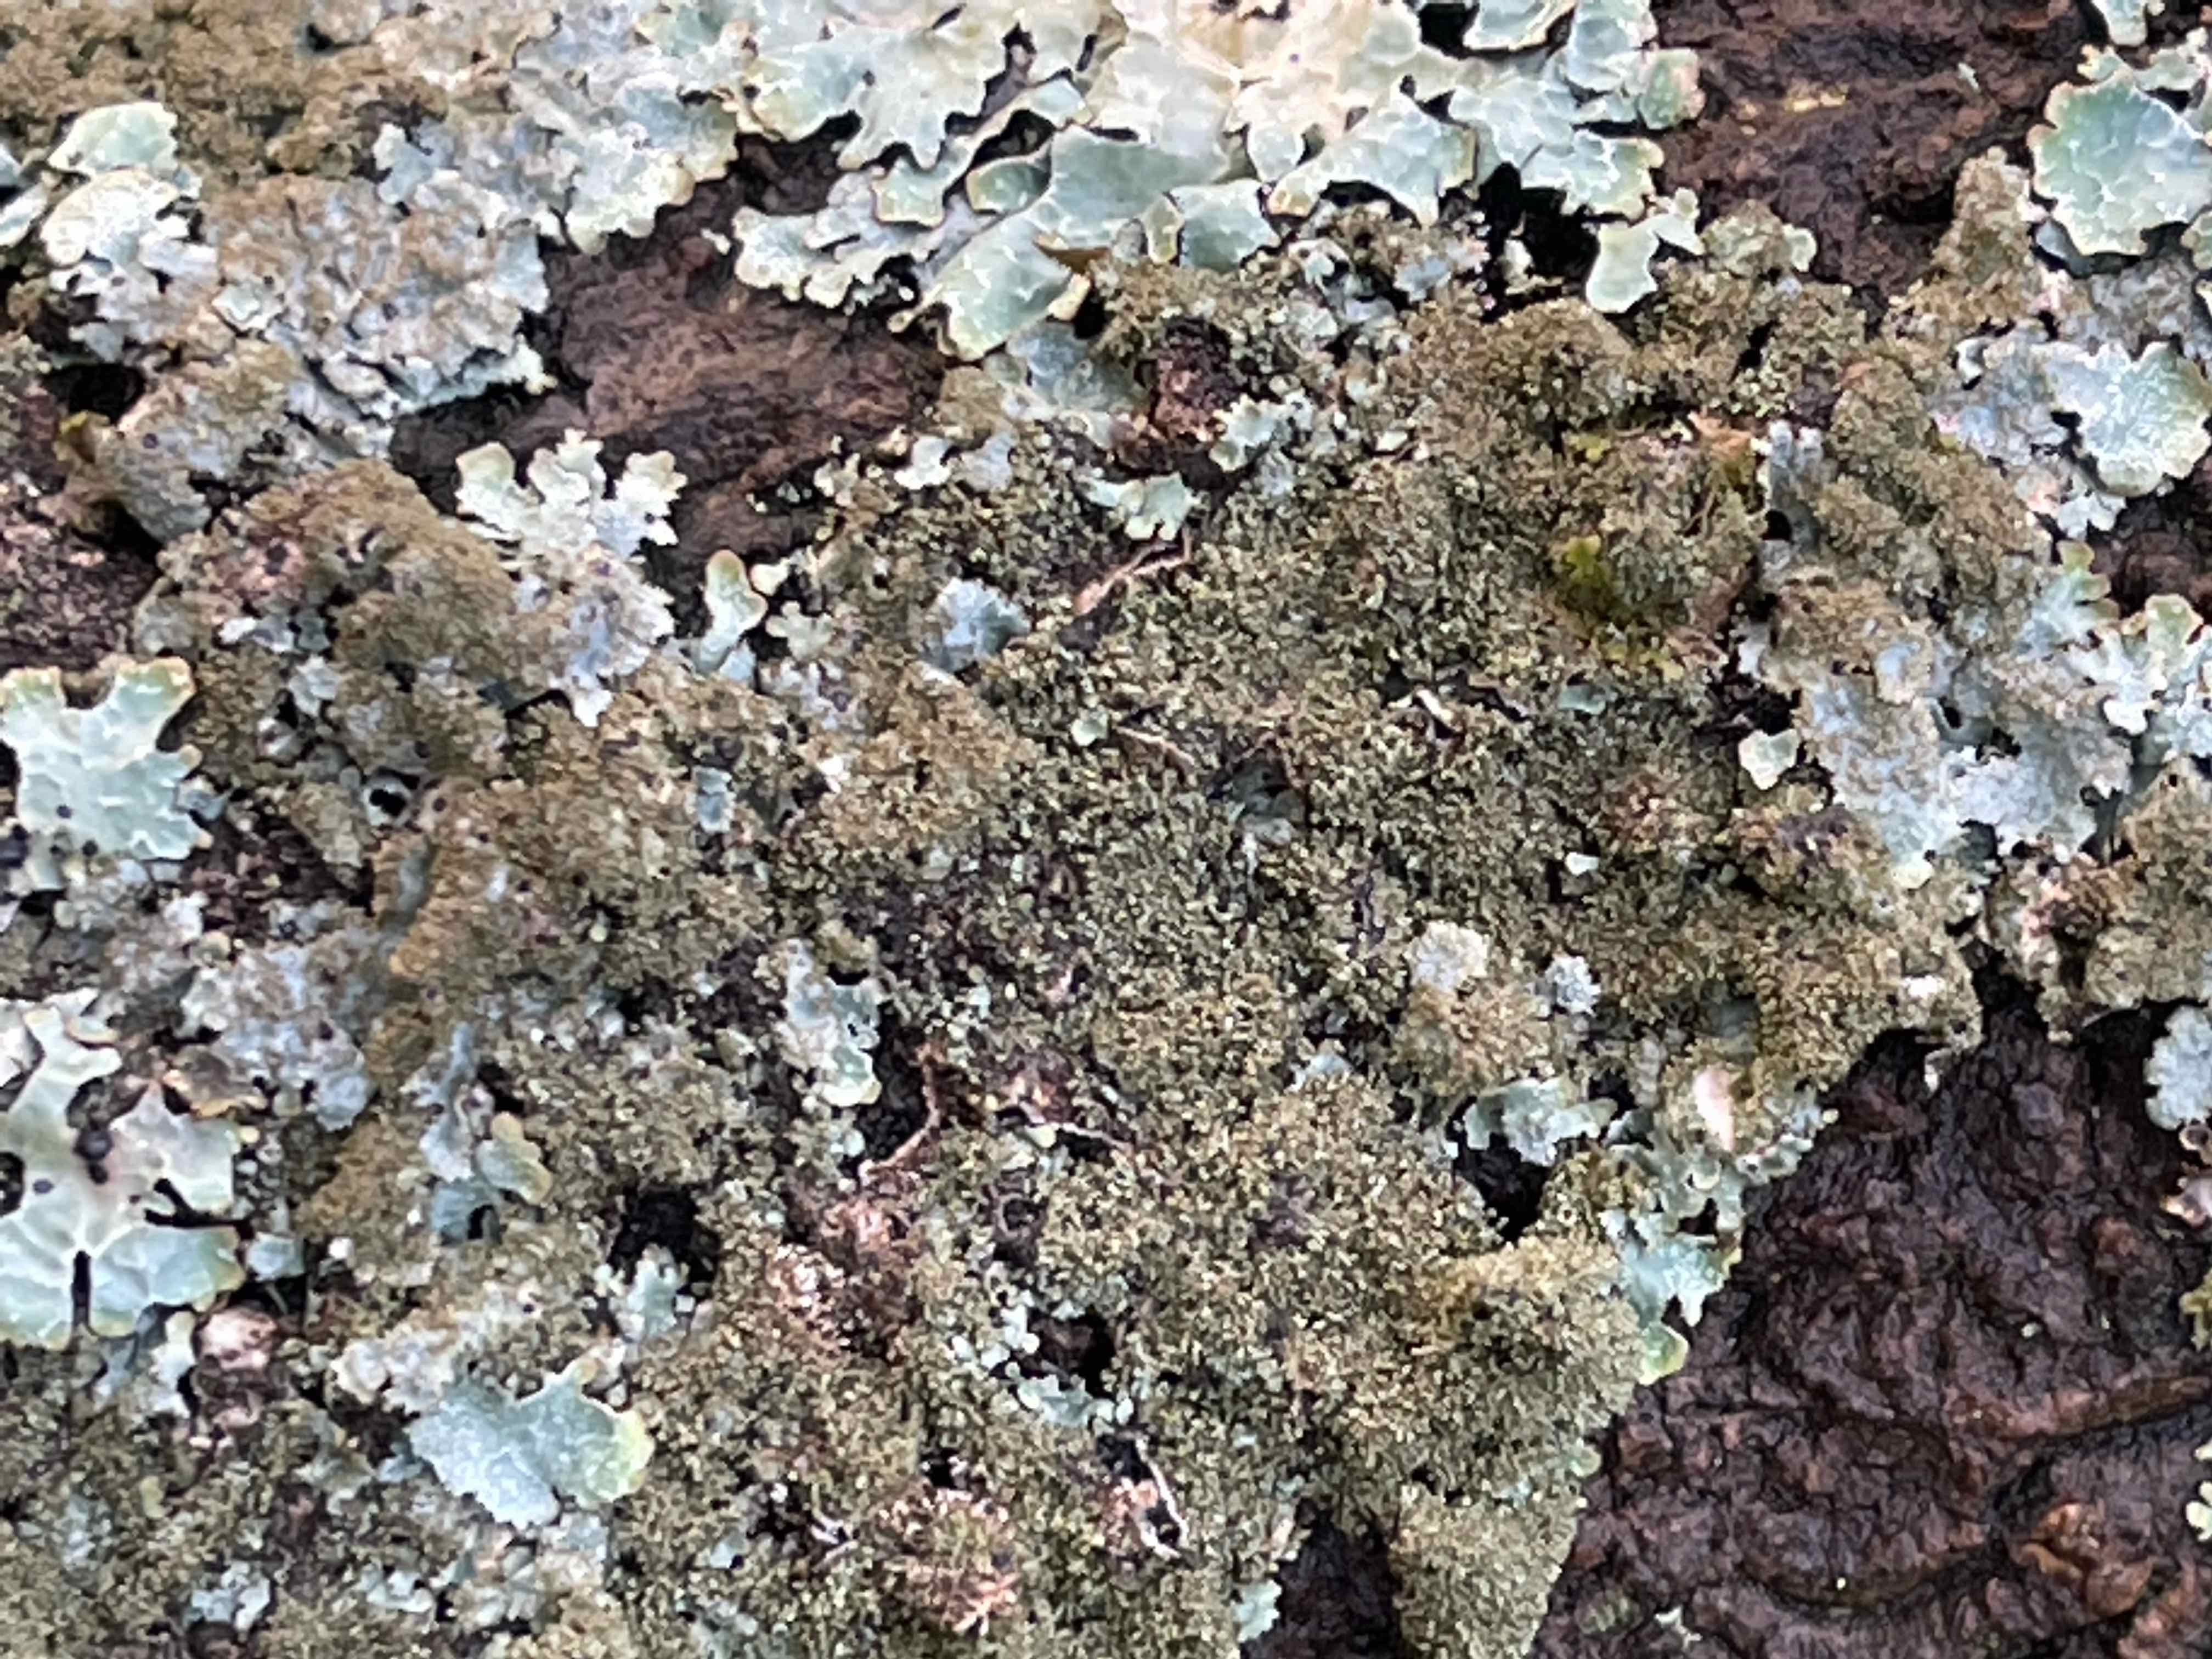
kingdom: Fungi
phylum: Ascomycota
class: Lecanoromycetes
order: Lecanorales
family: Parmeliaceae
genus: Parmelia
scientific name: Parmelia saxatilis
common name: farve-skållav
